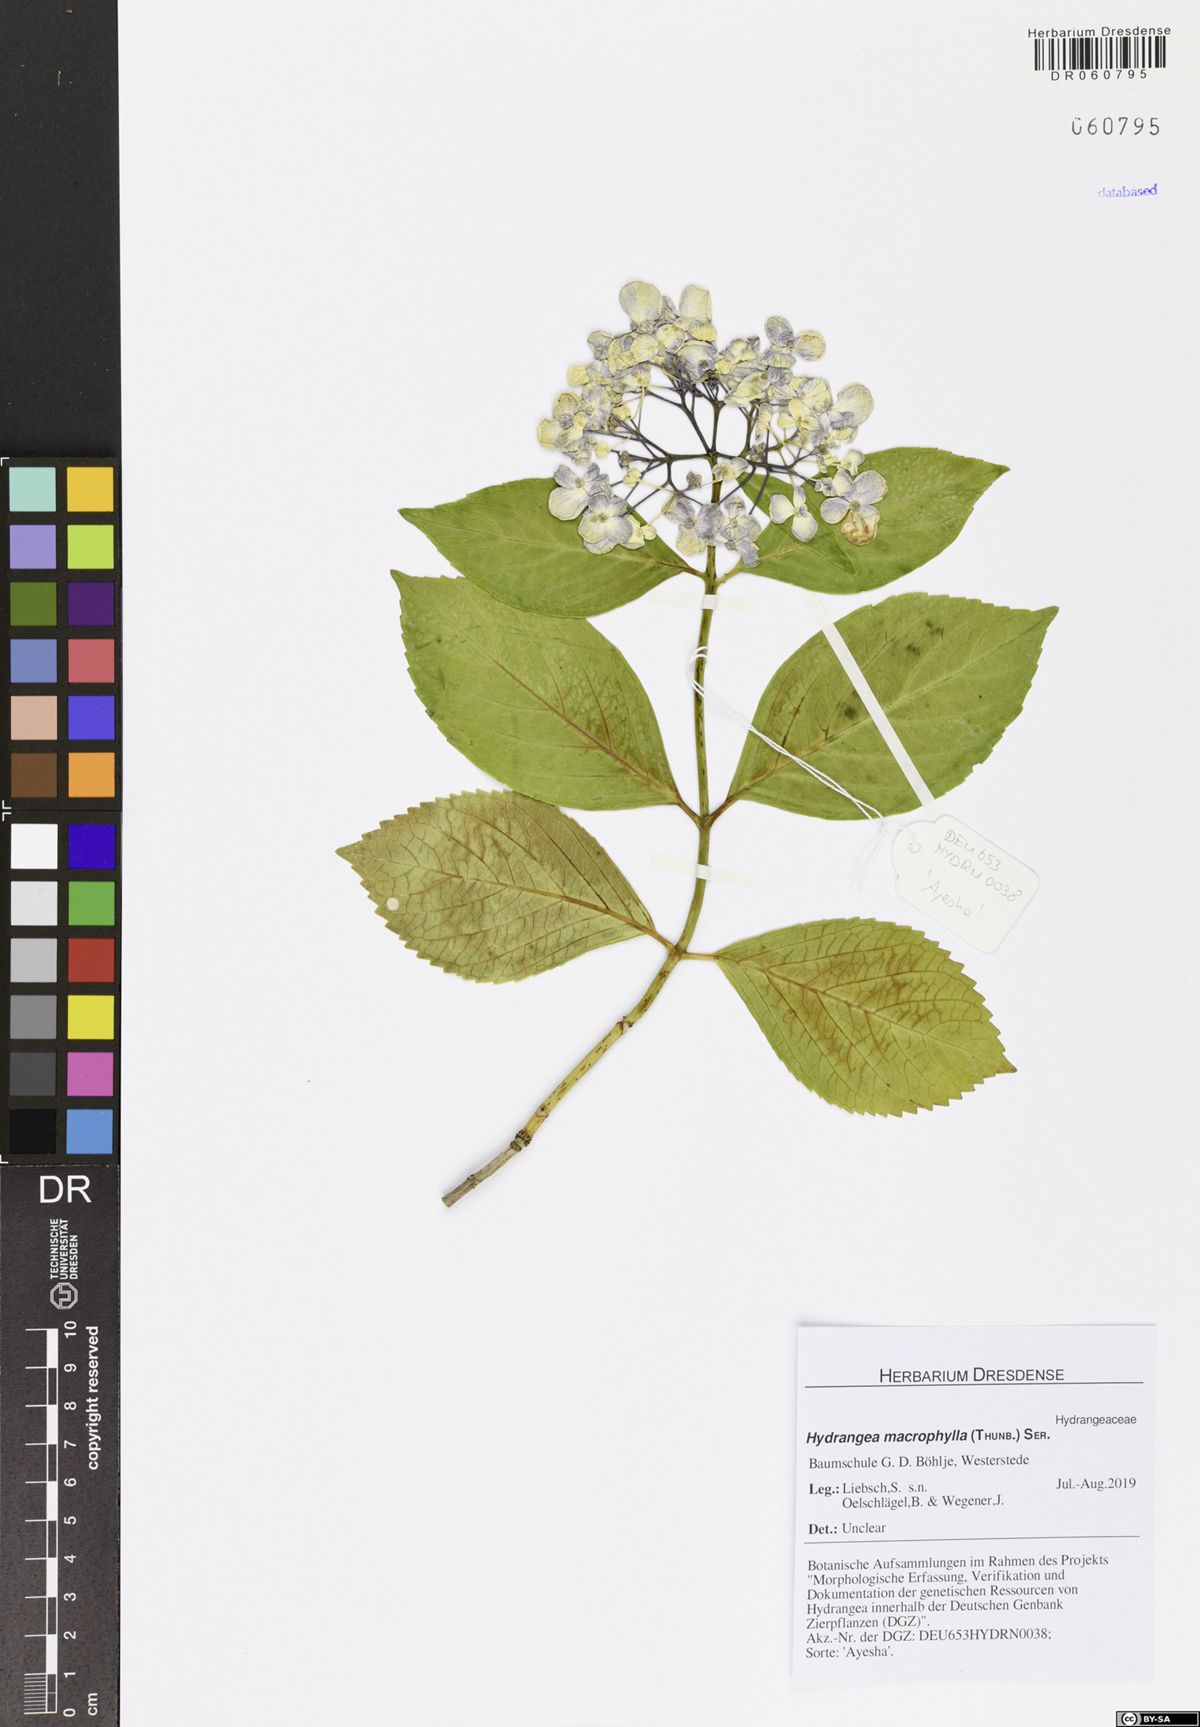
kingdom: Plantae
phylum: Tracheophyta
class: Magnoliopsida
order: Cornales
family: Hydrangeaceae
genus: Hydrangea
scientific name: Hydrangea macrophylla
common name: Hydrangea
